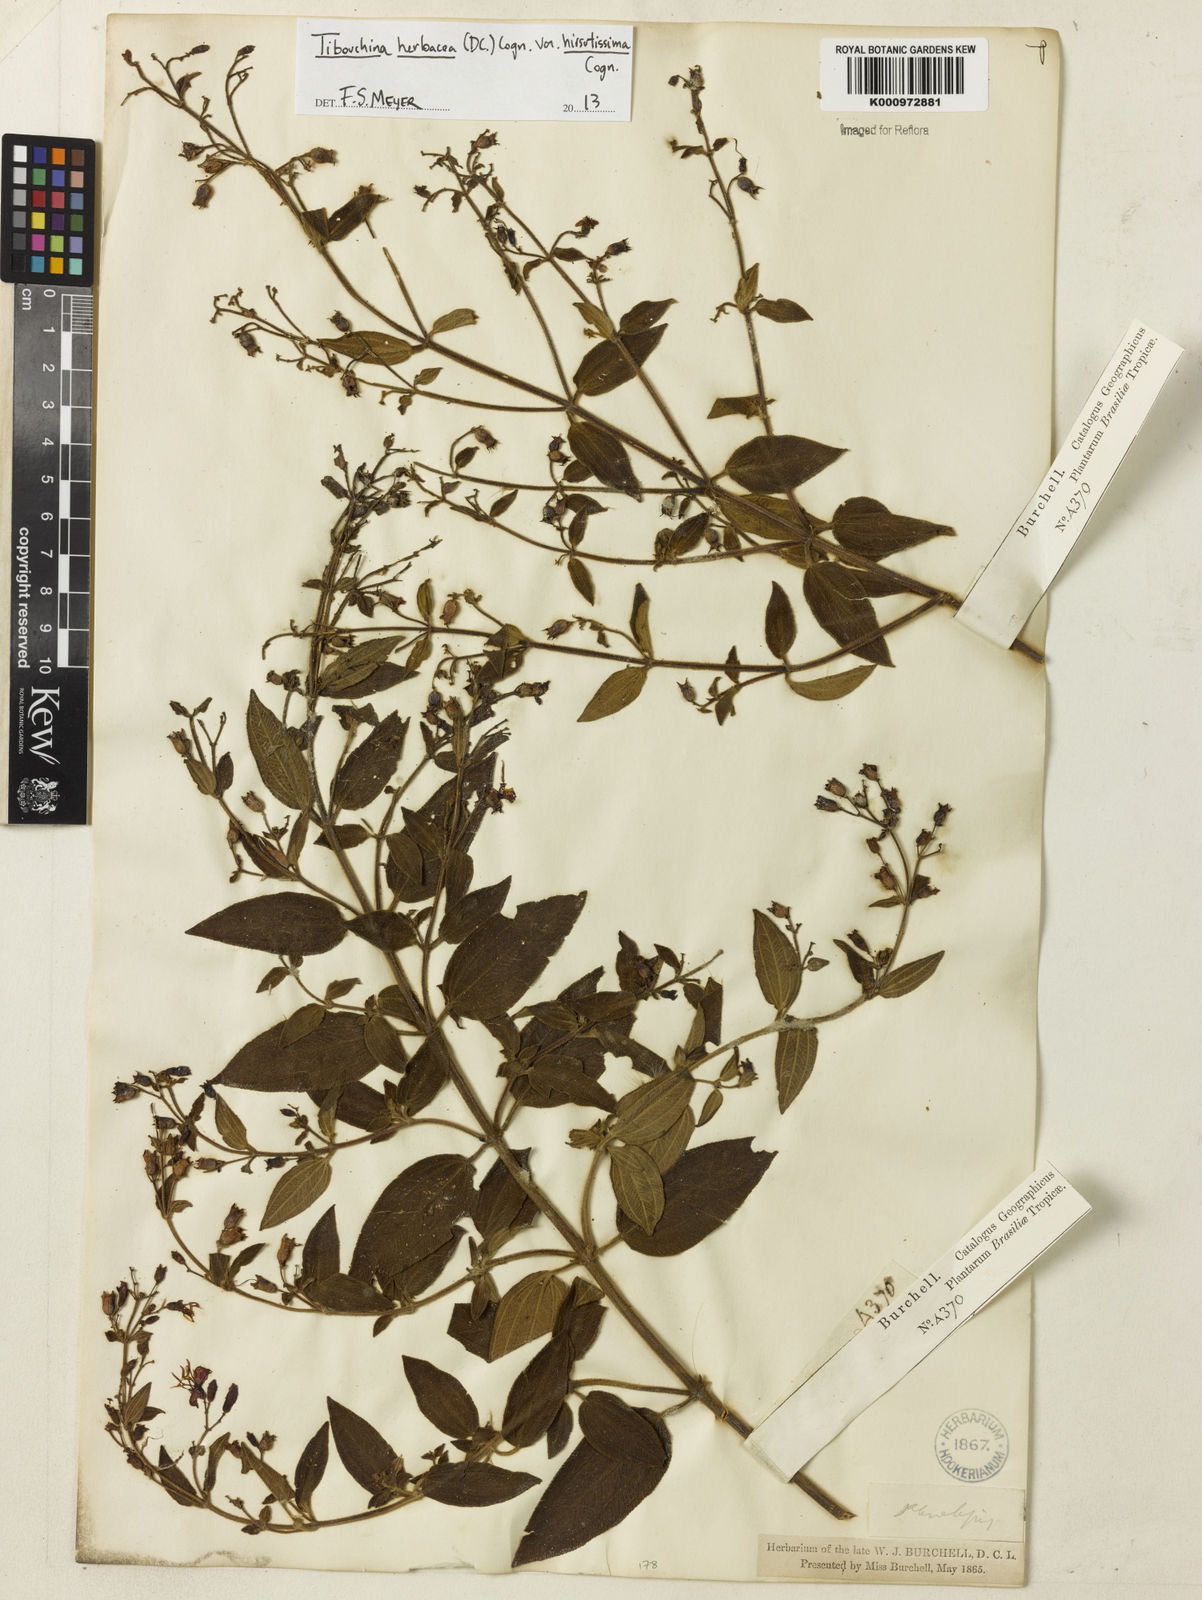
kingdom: Plantae
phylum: Tracheophyta
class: Magnoliopsida
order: Myrtales
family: Melastomataceae
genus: Chaetogastra
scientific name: Chaetogastra herbacea
